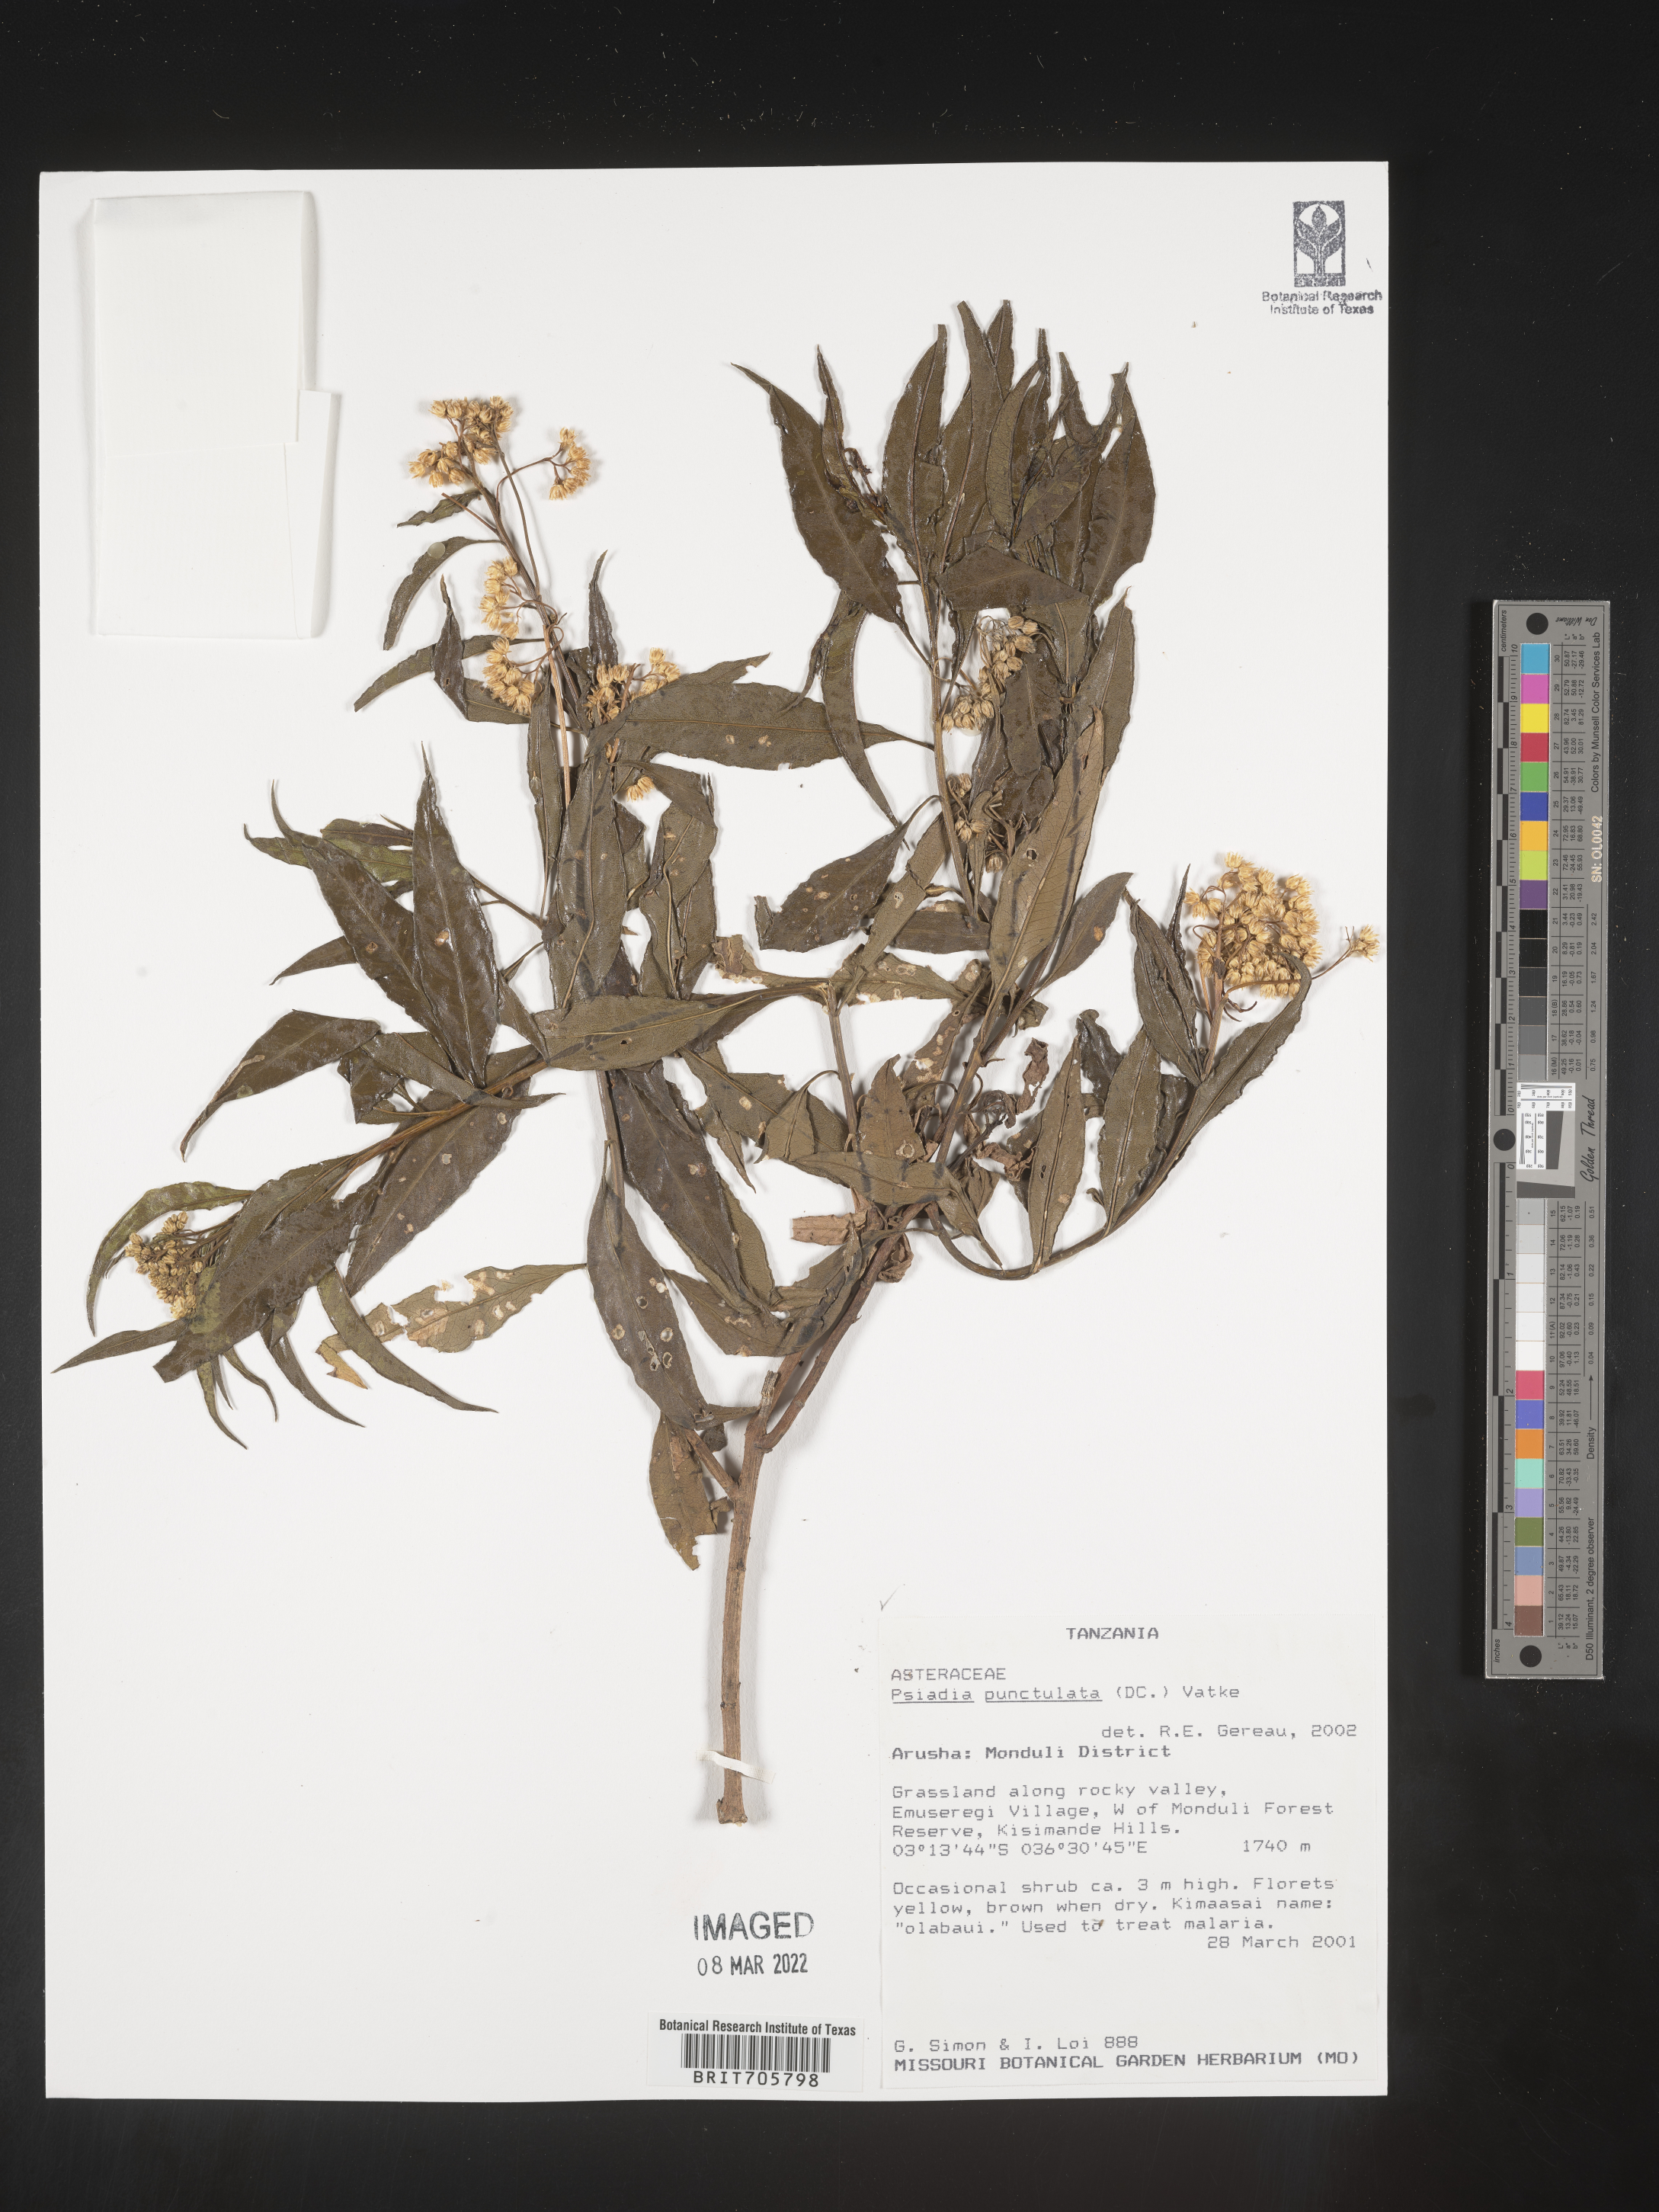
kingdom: Plantae
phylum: Tracheophyta
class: Magnoliopsida
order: Asterales
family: Asteraceae
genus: Psiadia
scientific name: Psiadia
